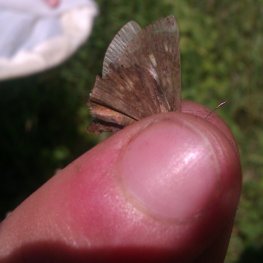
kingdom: Animalia
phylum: Arthropoda
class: Insecta
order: Lepidoptera
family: Hesperiidae
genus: Polites
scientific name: Polites egeremet
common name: Northern Broken-Dash
